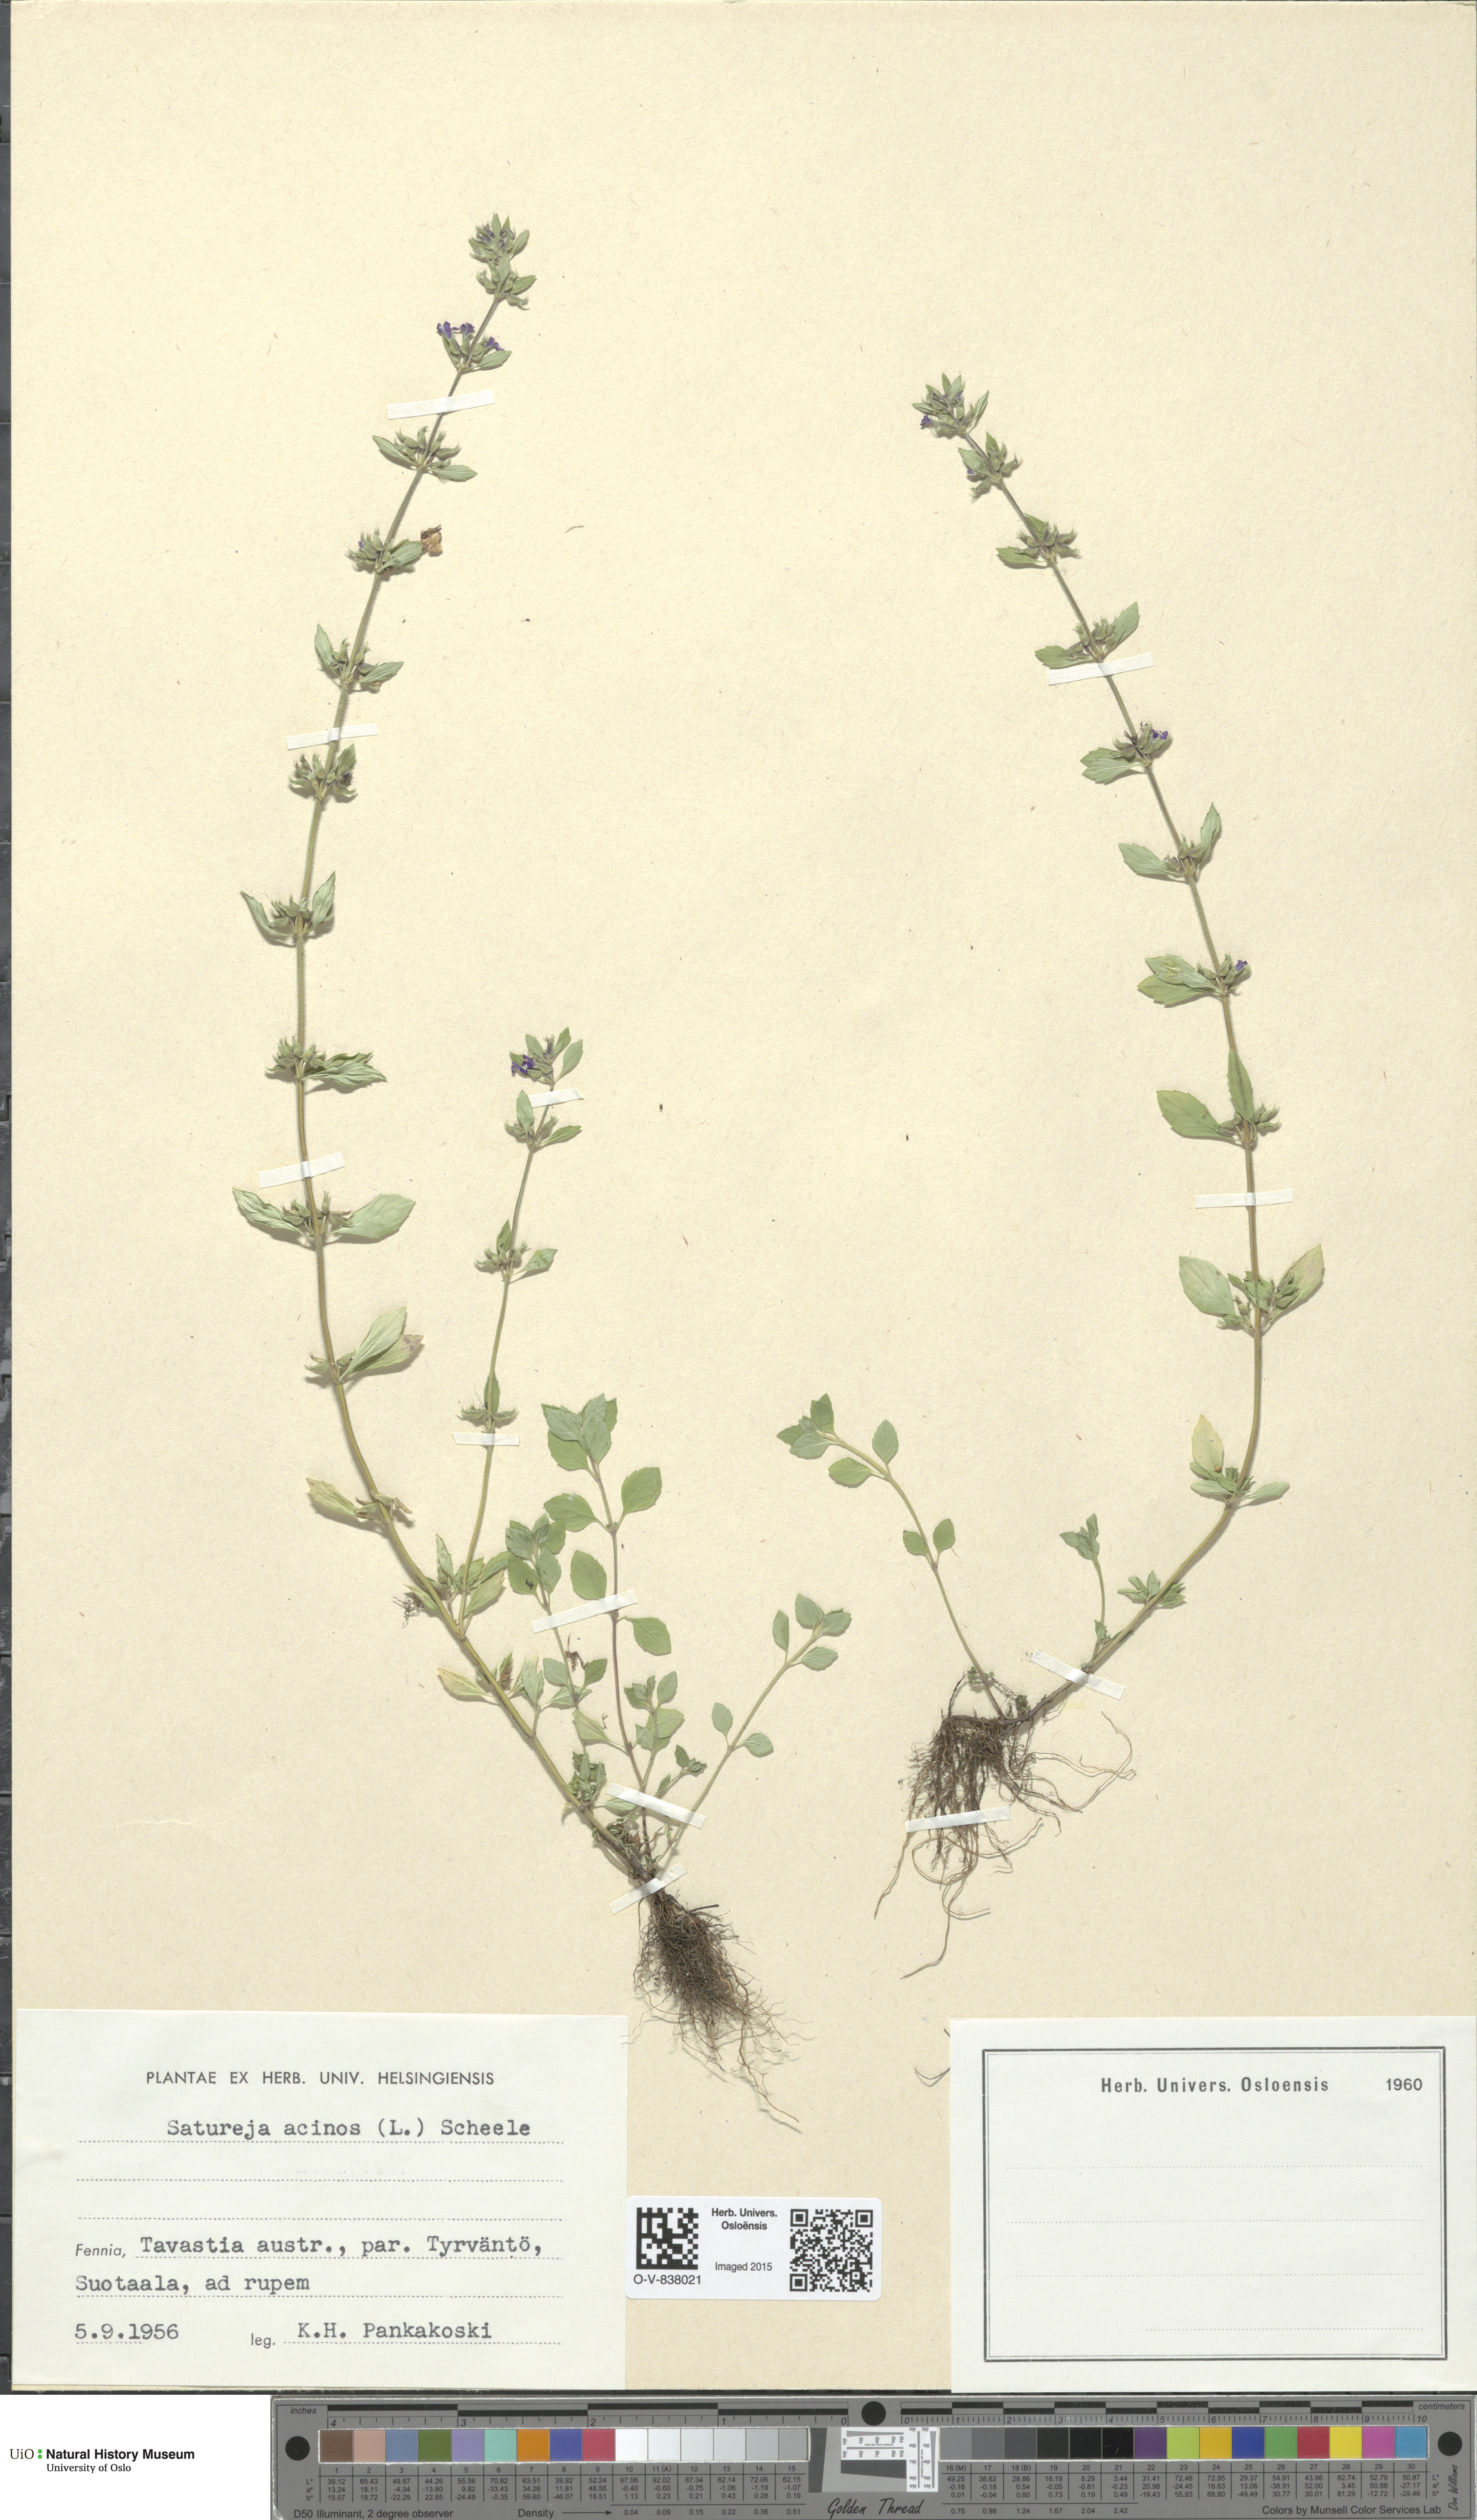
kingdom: Plantae
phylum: Tracheophyta
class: Magnoliopsida
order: Lamiales
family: Lamiaceae
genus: Clinopodium
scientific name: Clinopodium acinos
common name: Basil thyme
